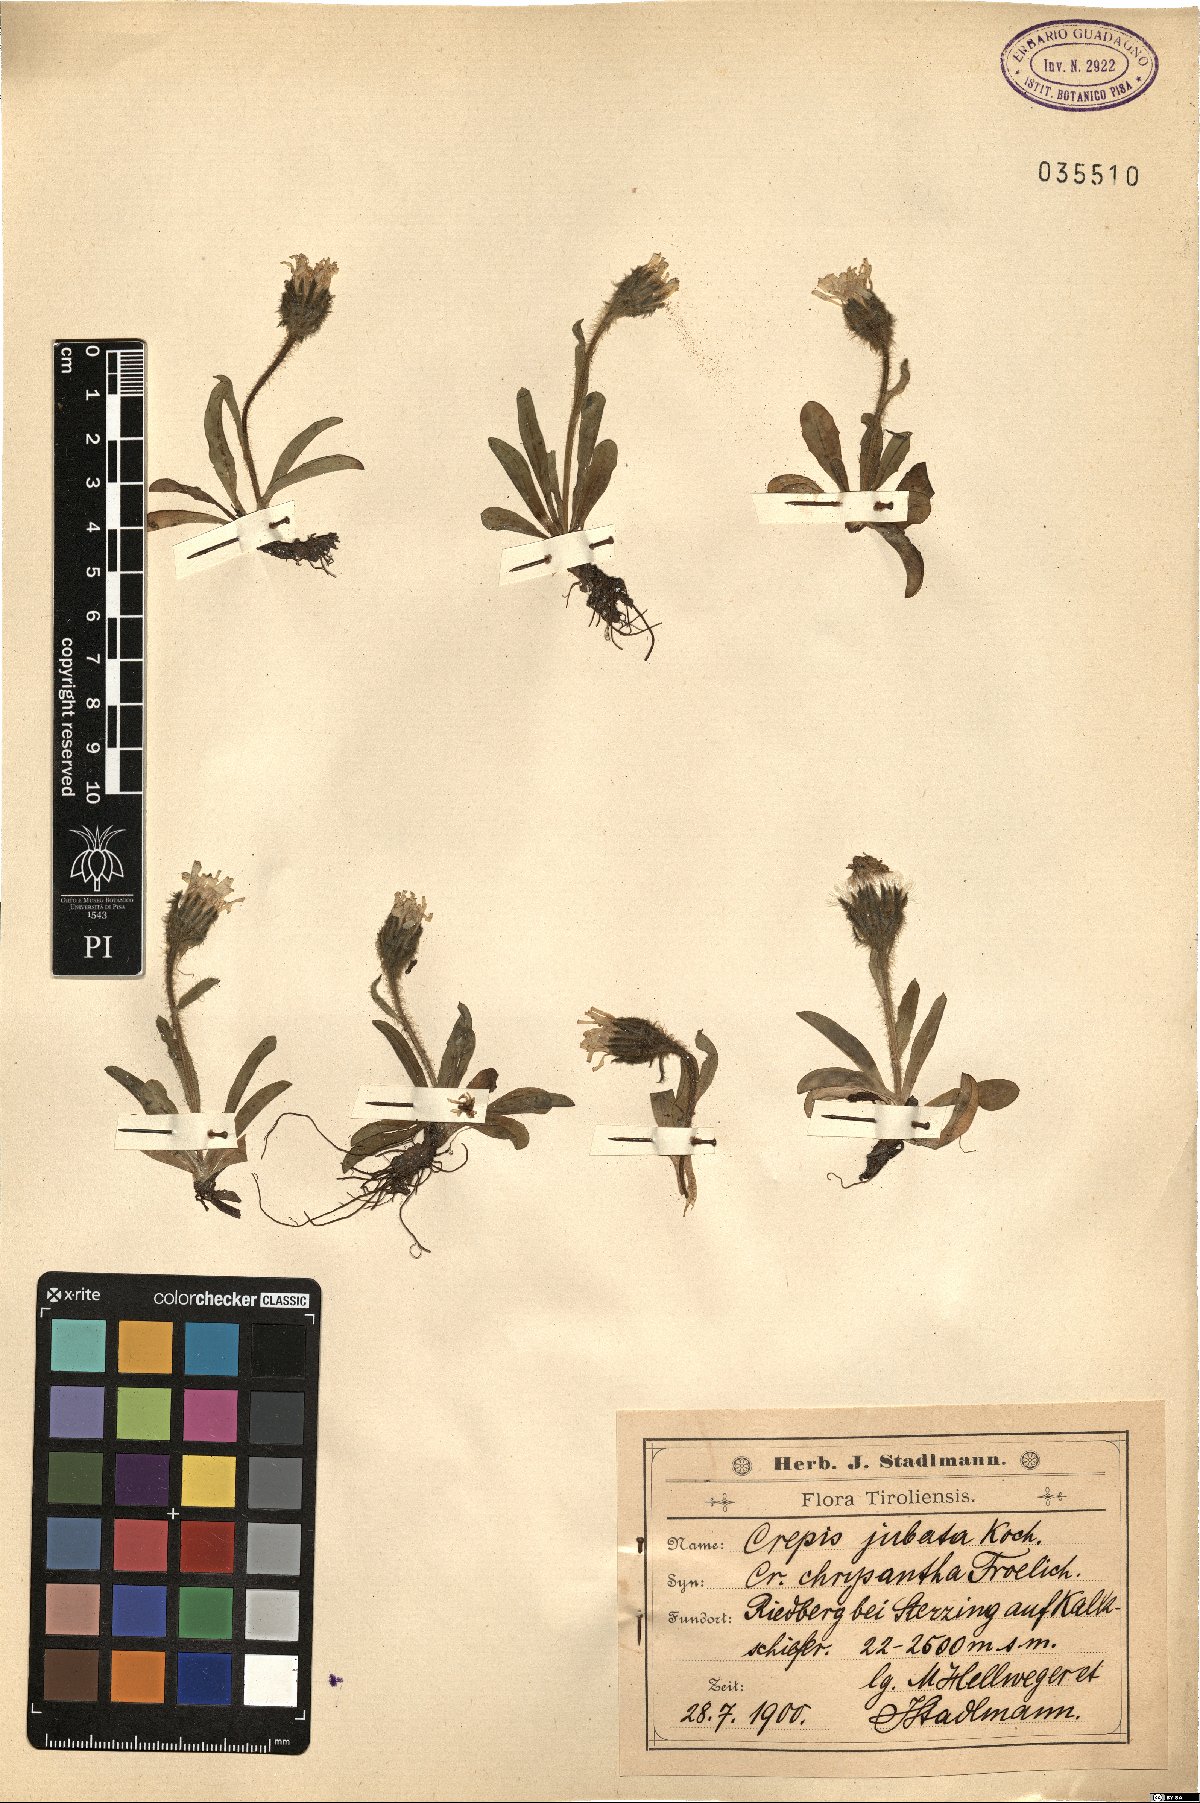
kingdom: Plantae
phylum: Tracheophyta
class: Magnoliopsida
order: Asterales
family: Asteraceae
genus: Crepis
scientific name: Crepis rhaetica
